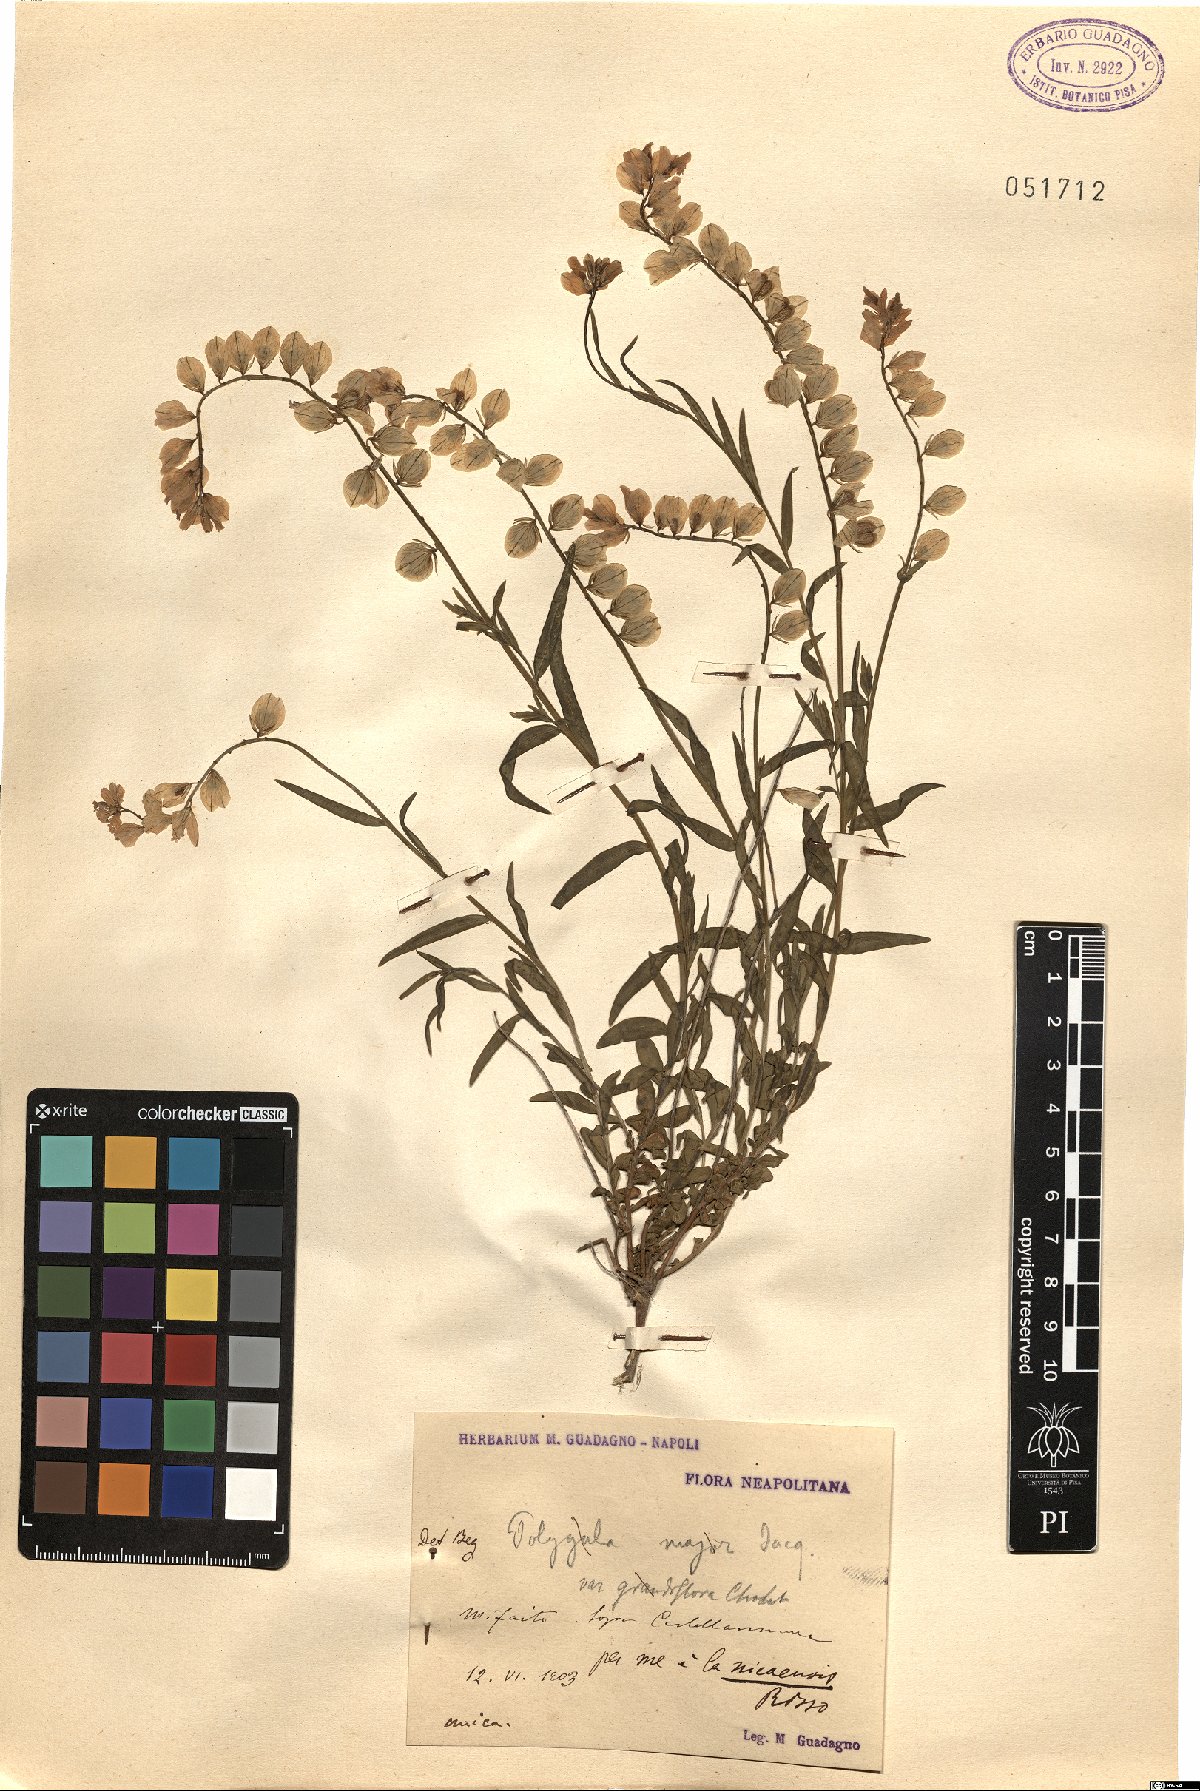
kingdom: Plantae
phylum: Tracheophyta
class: Magnoliopsida
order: Fabales
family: Polygalaceae
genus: Polygala
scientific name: Polygala nicaeensis
